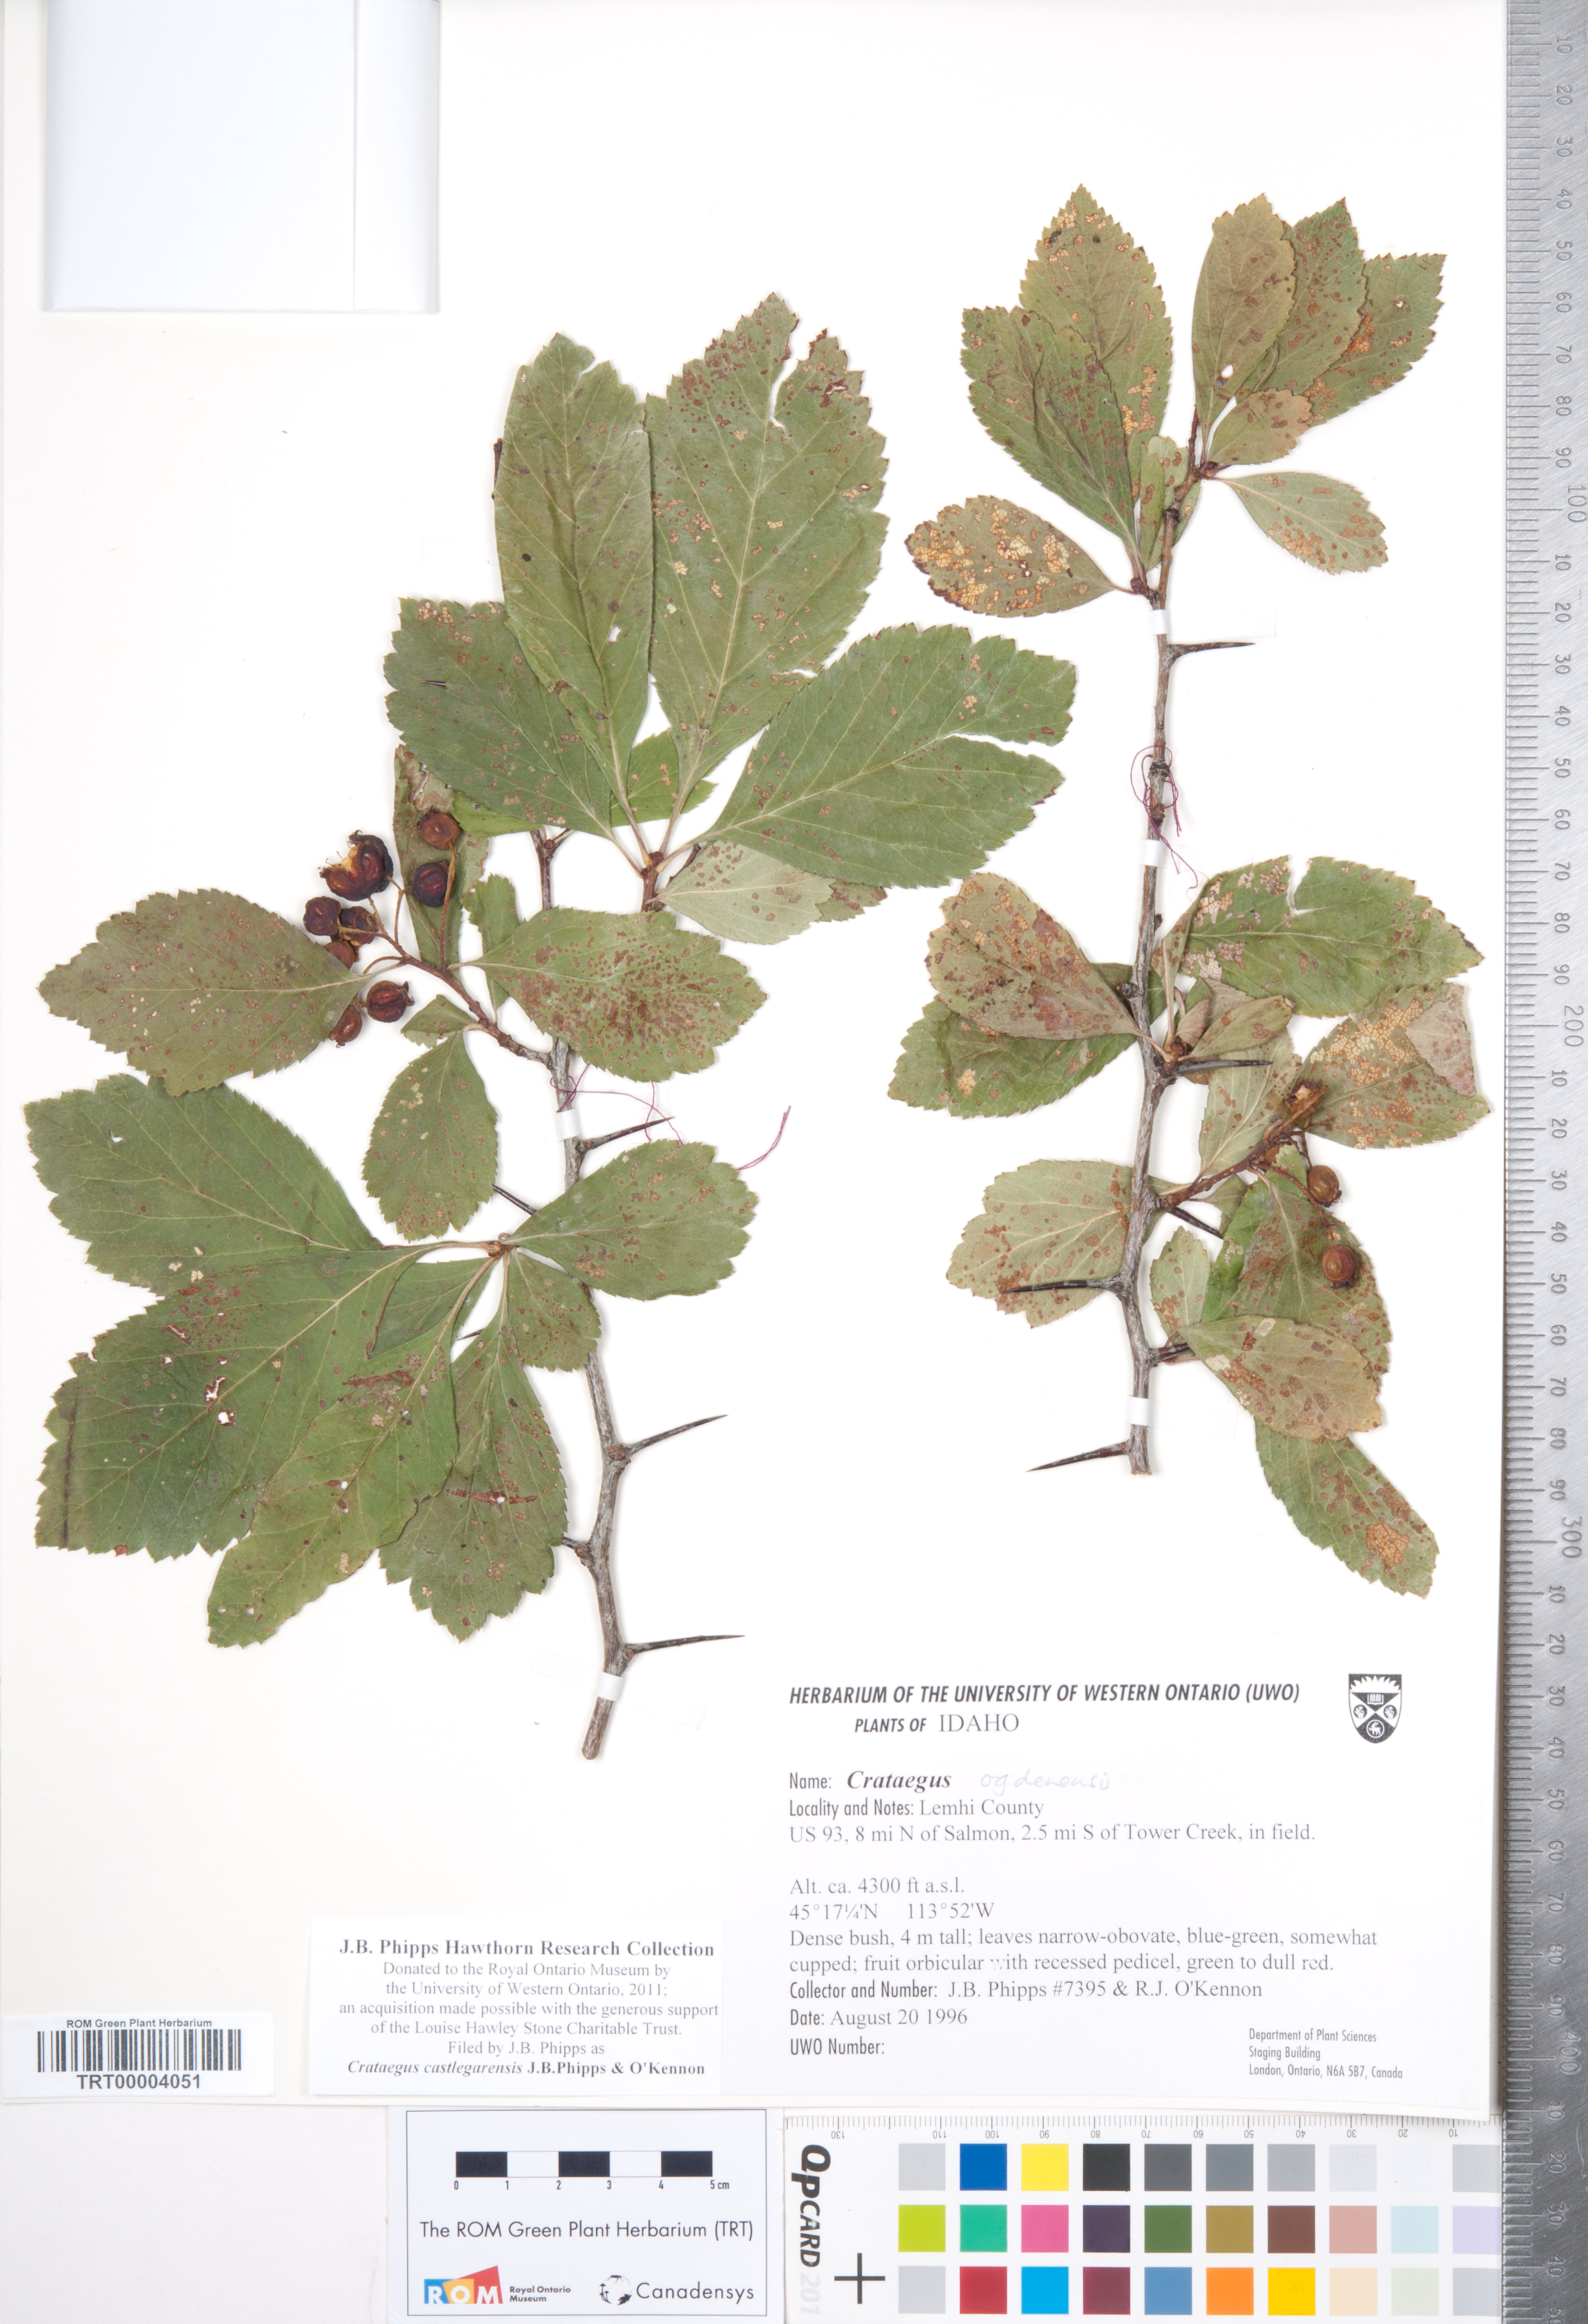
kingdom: Plantae
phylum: Tracheophyta
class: Magnoliopsida
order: Rosales
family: Rosaceae
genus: Crataegus
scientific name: Crataegus castlegarensis
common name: Castlegar hawthorn
